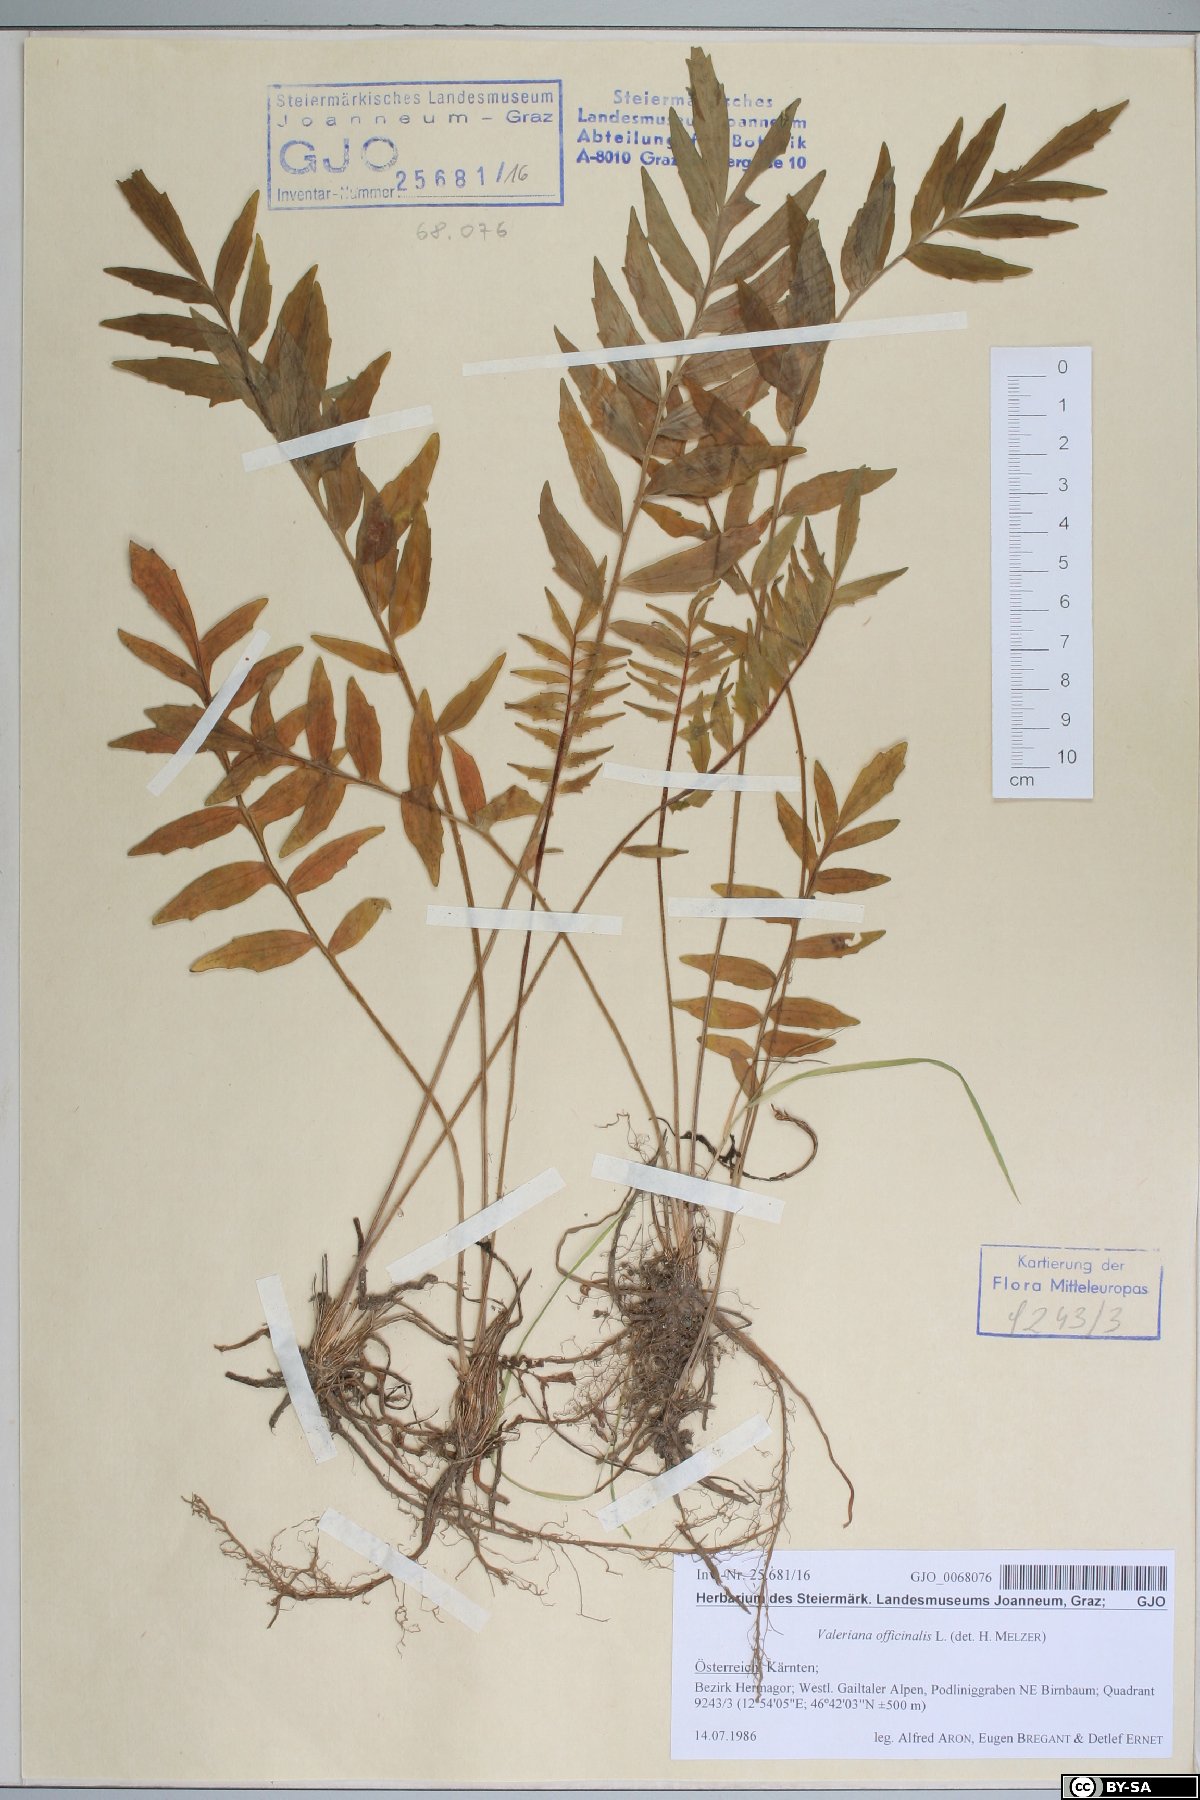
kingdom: Plantae
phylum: Tracheophyta
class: Magnoliopsida
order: Dipsacales
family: Caprifoliaceae
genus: Valeriana
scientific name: Valeriana officinalis
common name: Common valerian
